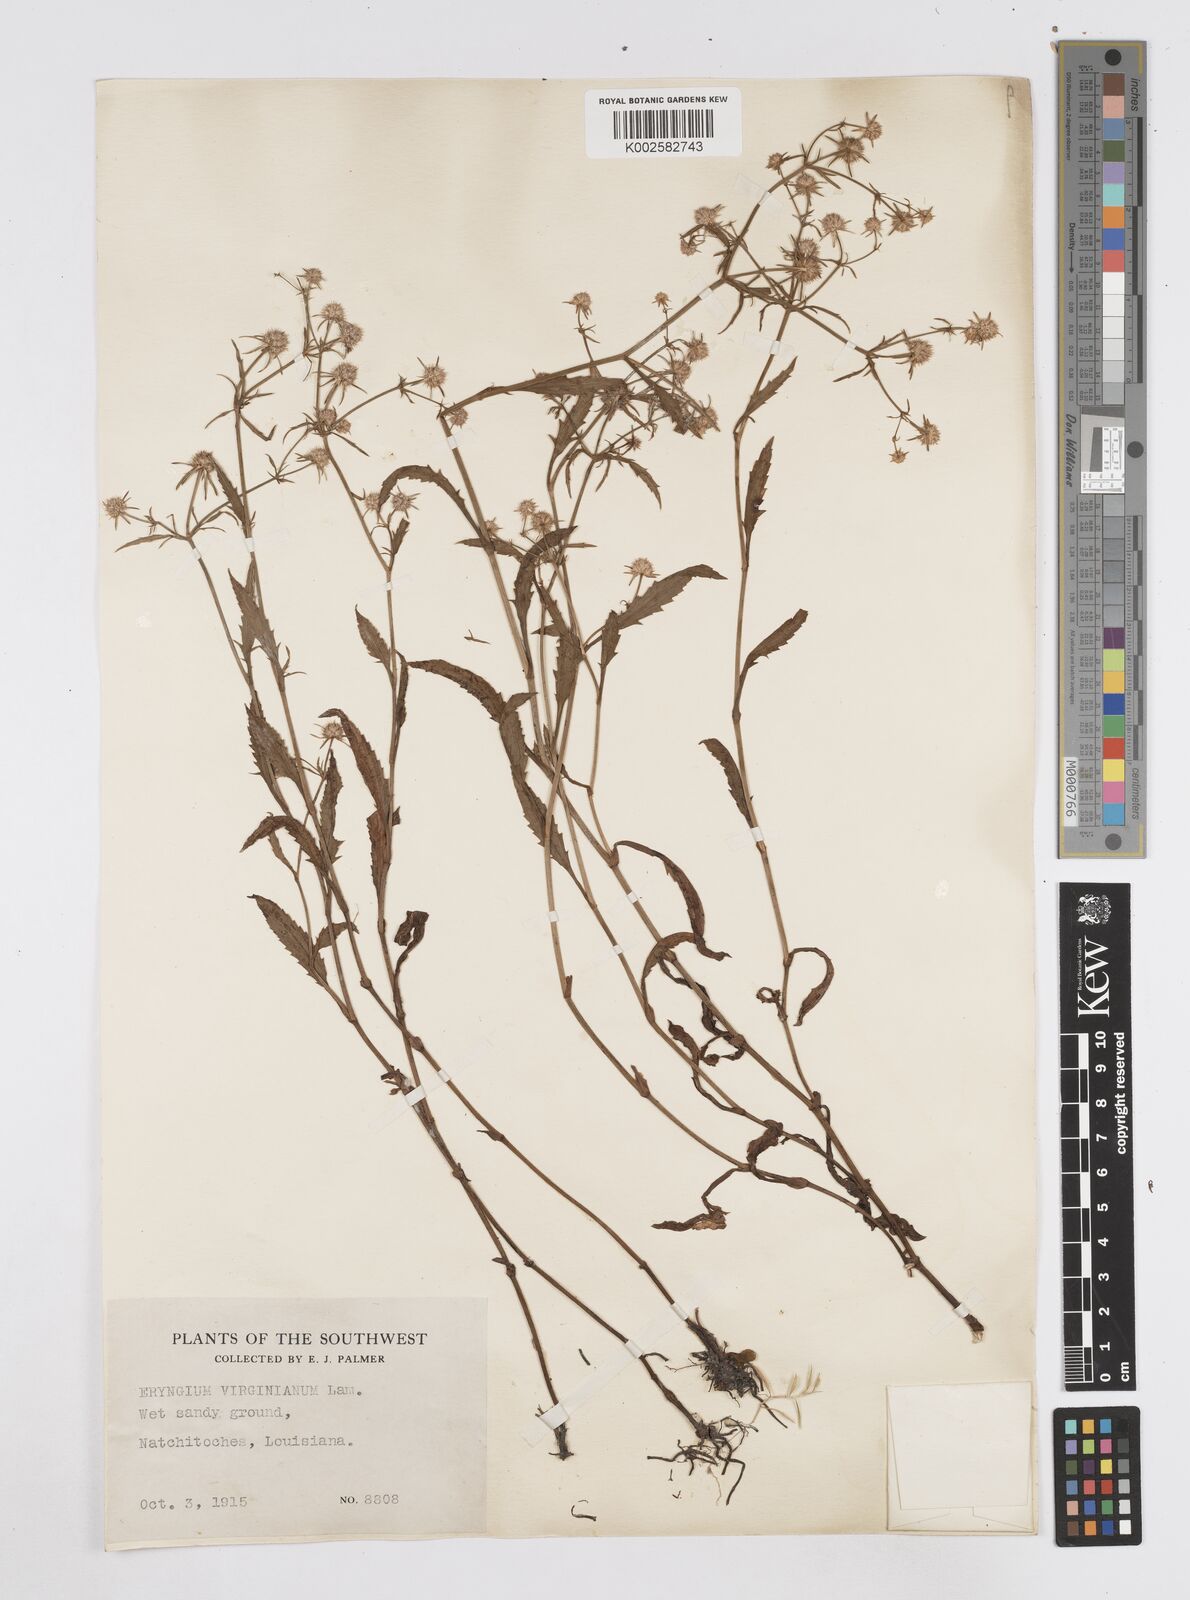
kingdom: Plantae
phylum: Tracheophyta
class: Magnoliopsida
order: Apiales
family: Apiaceae
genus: Eryngium
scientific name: Eryngium integrifolium
